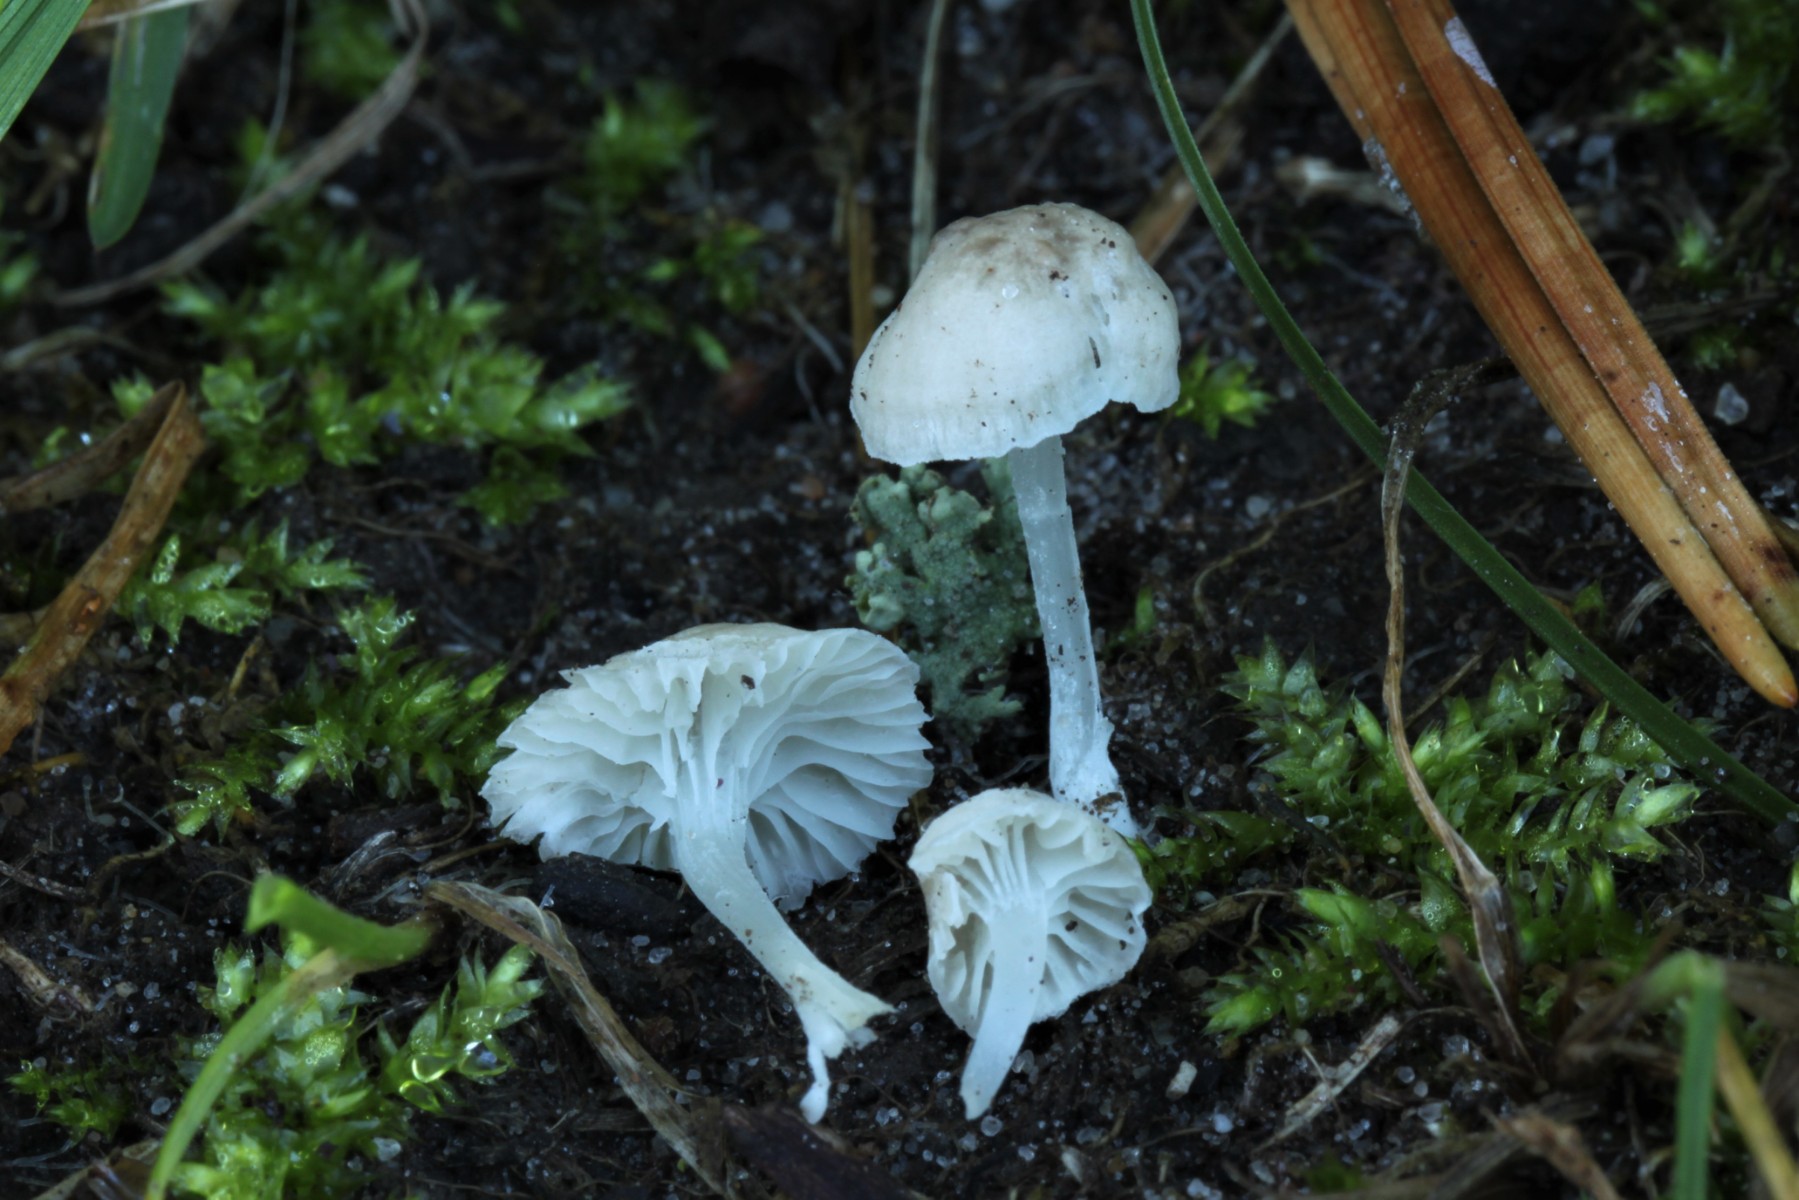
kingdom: Fungi
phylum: Basidiomycota
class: Agaricomycetes
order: Agaricales
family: Mycenaceae
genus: Hemimycena
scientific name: Hemimycena mairei
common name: voks-huesvamp
